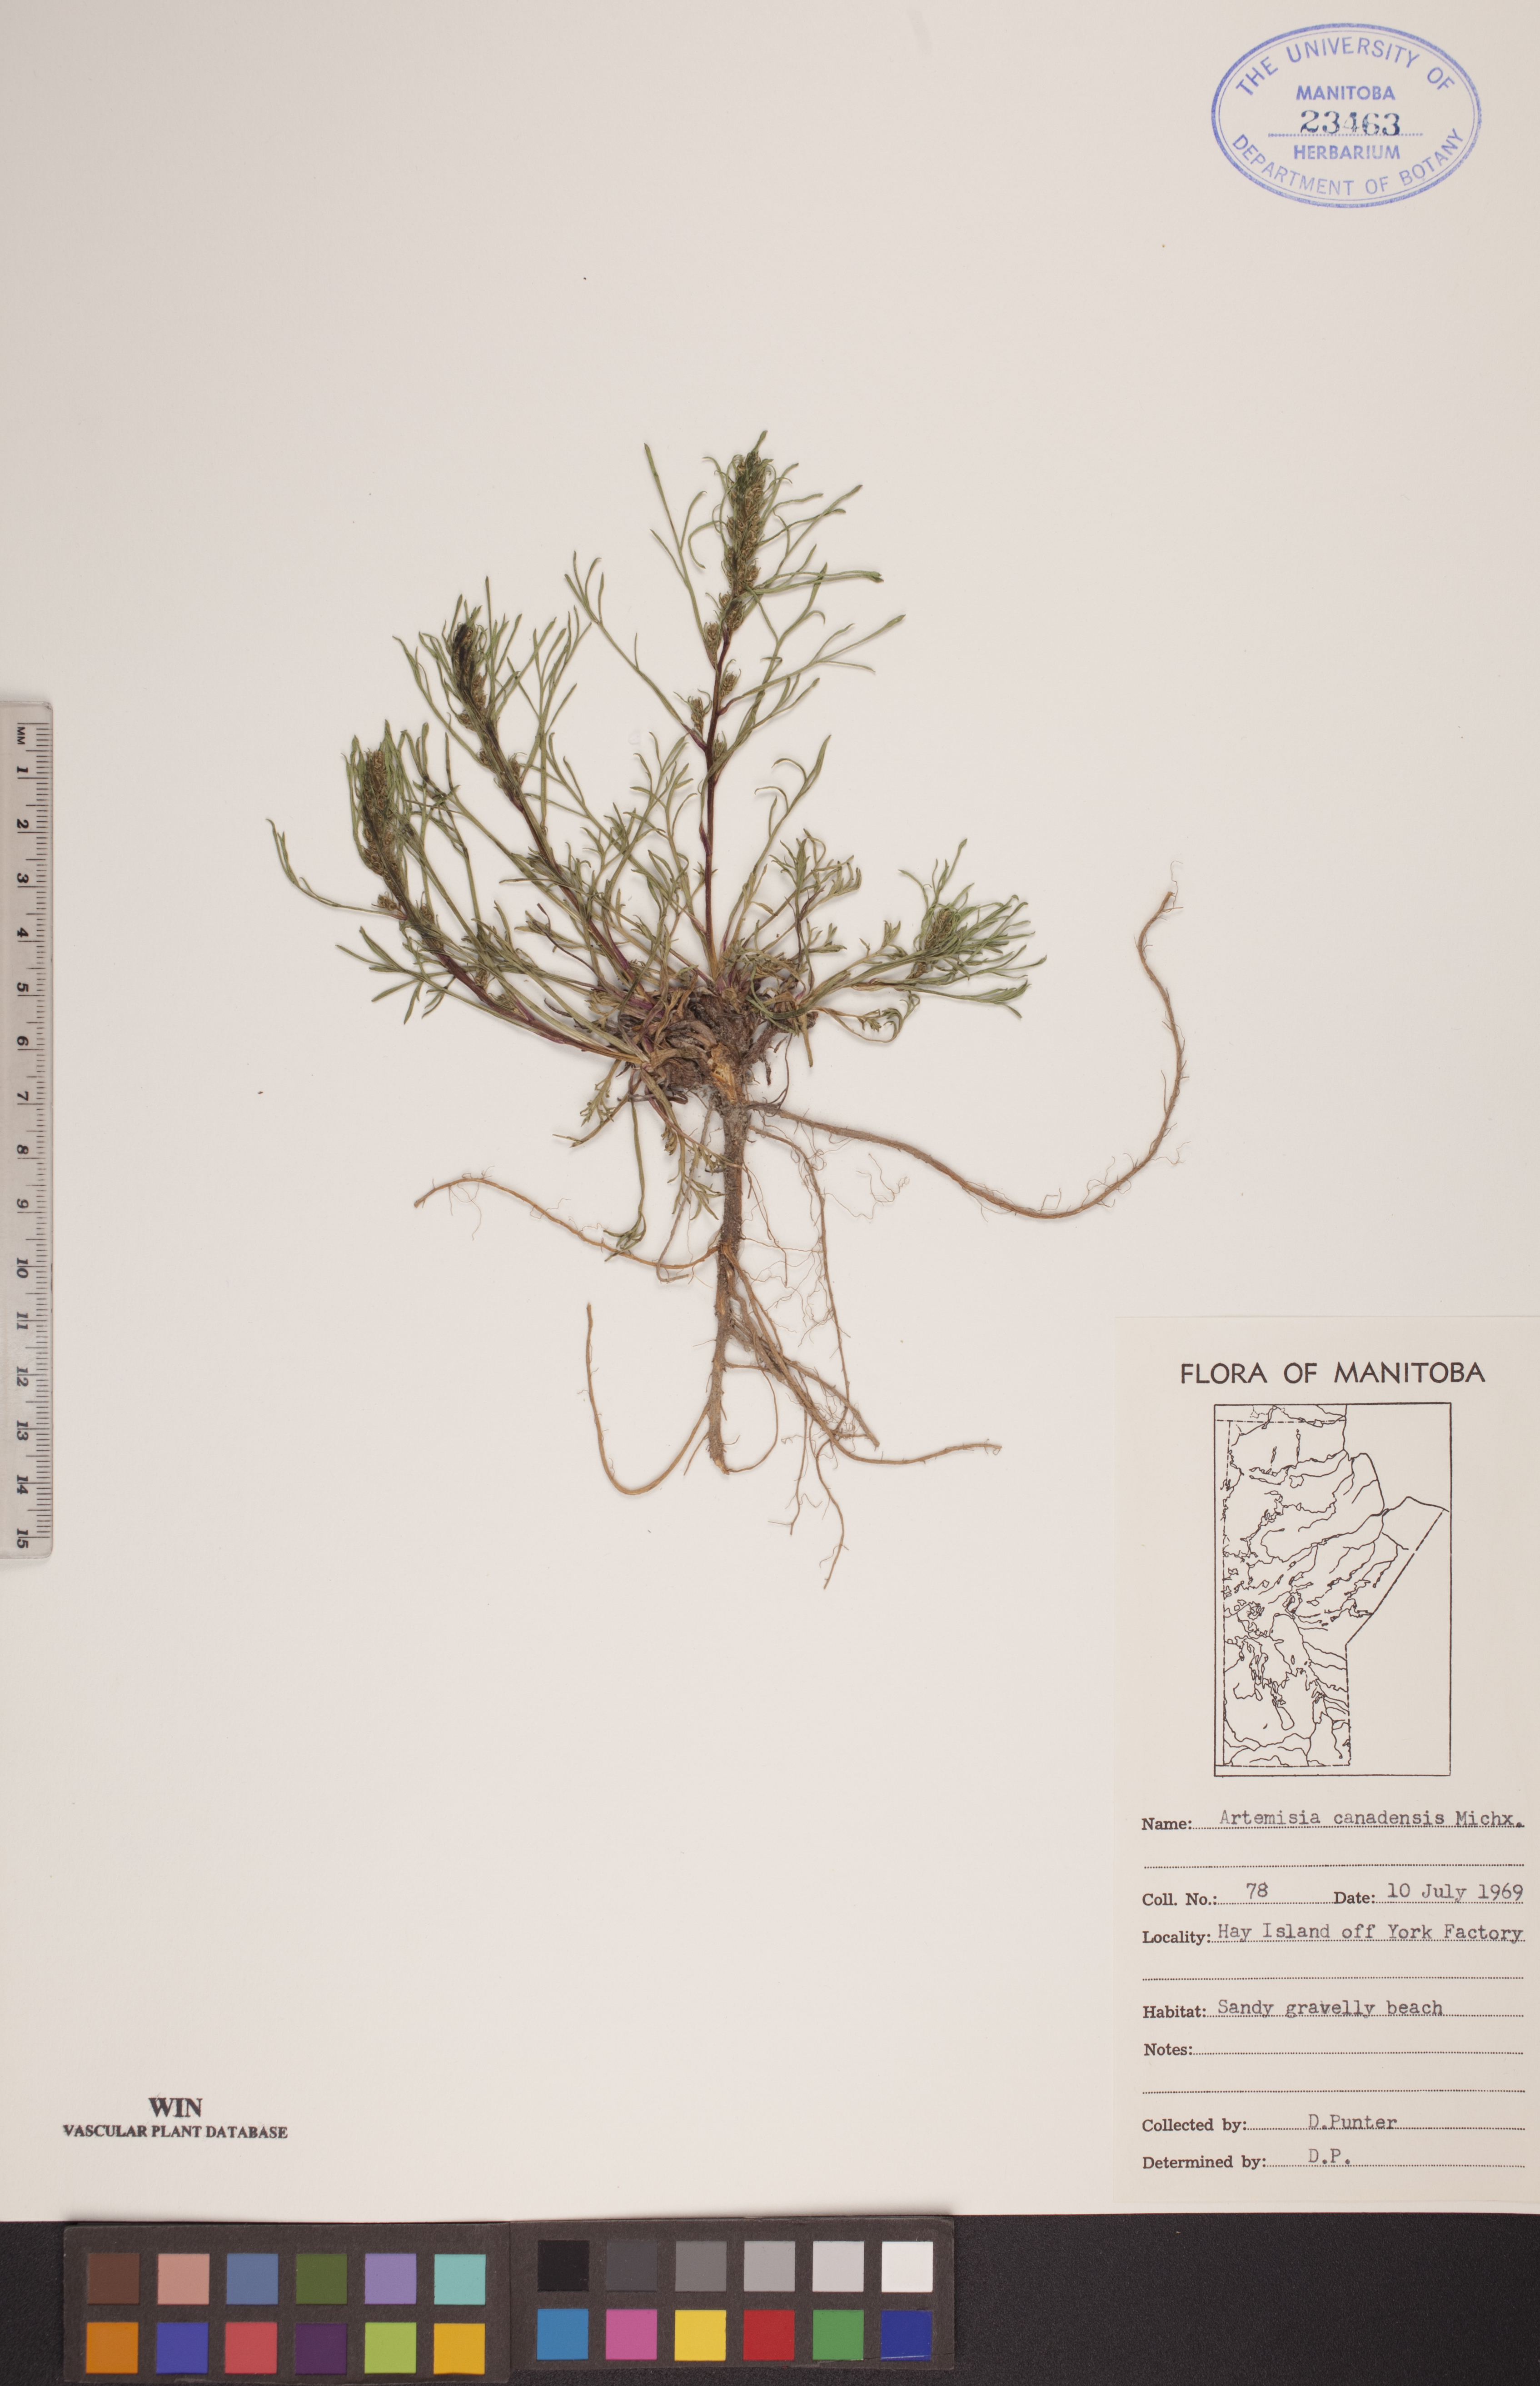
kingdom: Plantae
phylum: Tracheophyta
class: Magnoliopsida
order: Asterales
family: Asteraceae
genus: Artemisia
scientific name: Artemisia campestris
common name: Field wormwood
